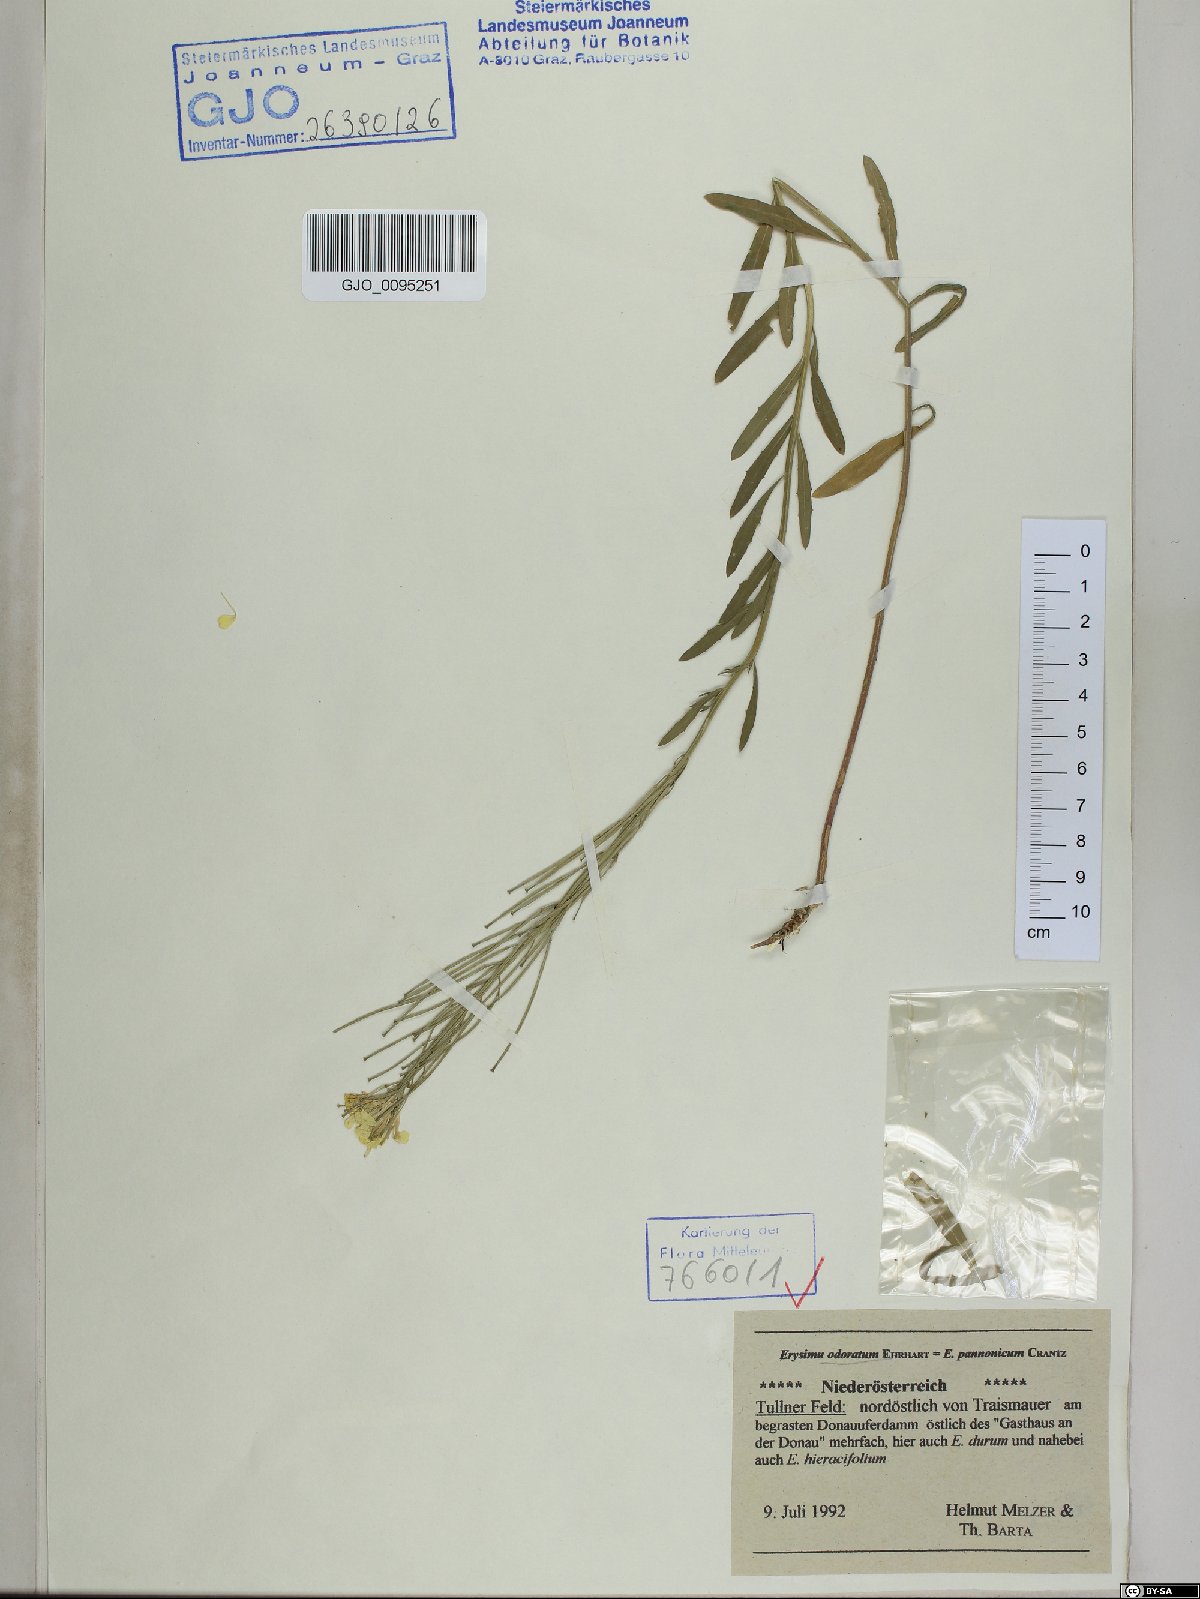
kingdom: Plantae
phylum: Tracheophyta
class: Magnoliopsida
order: Brassicales
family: Brassicaceae
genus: Erysimum
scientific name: Erysimum odoratum
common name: Smelly wallflower
